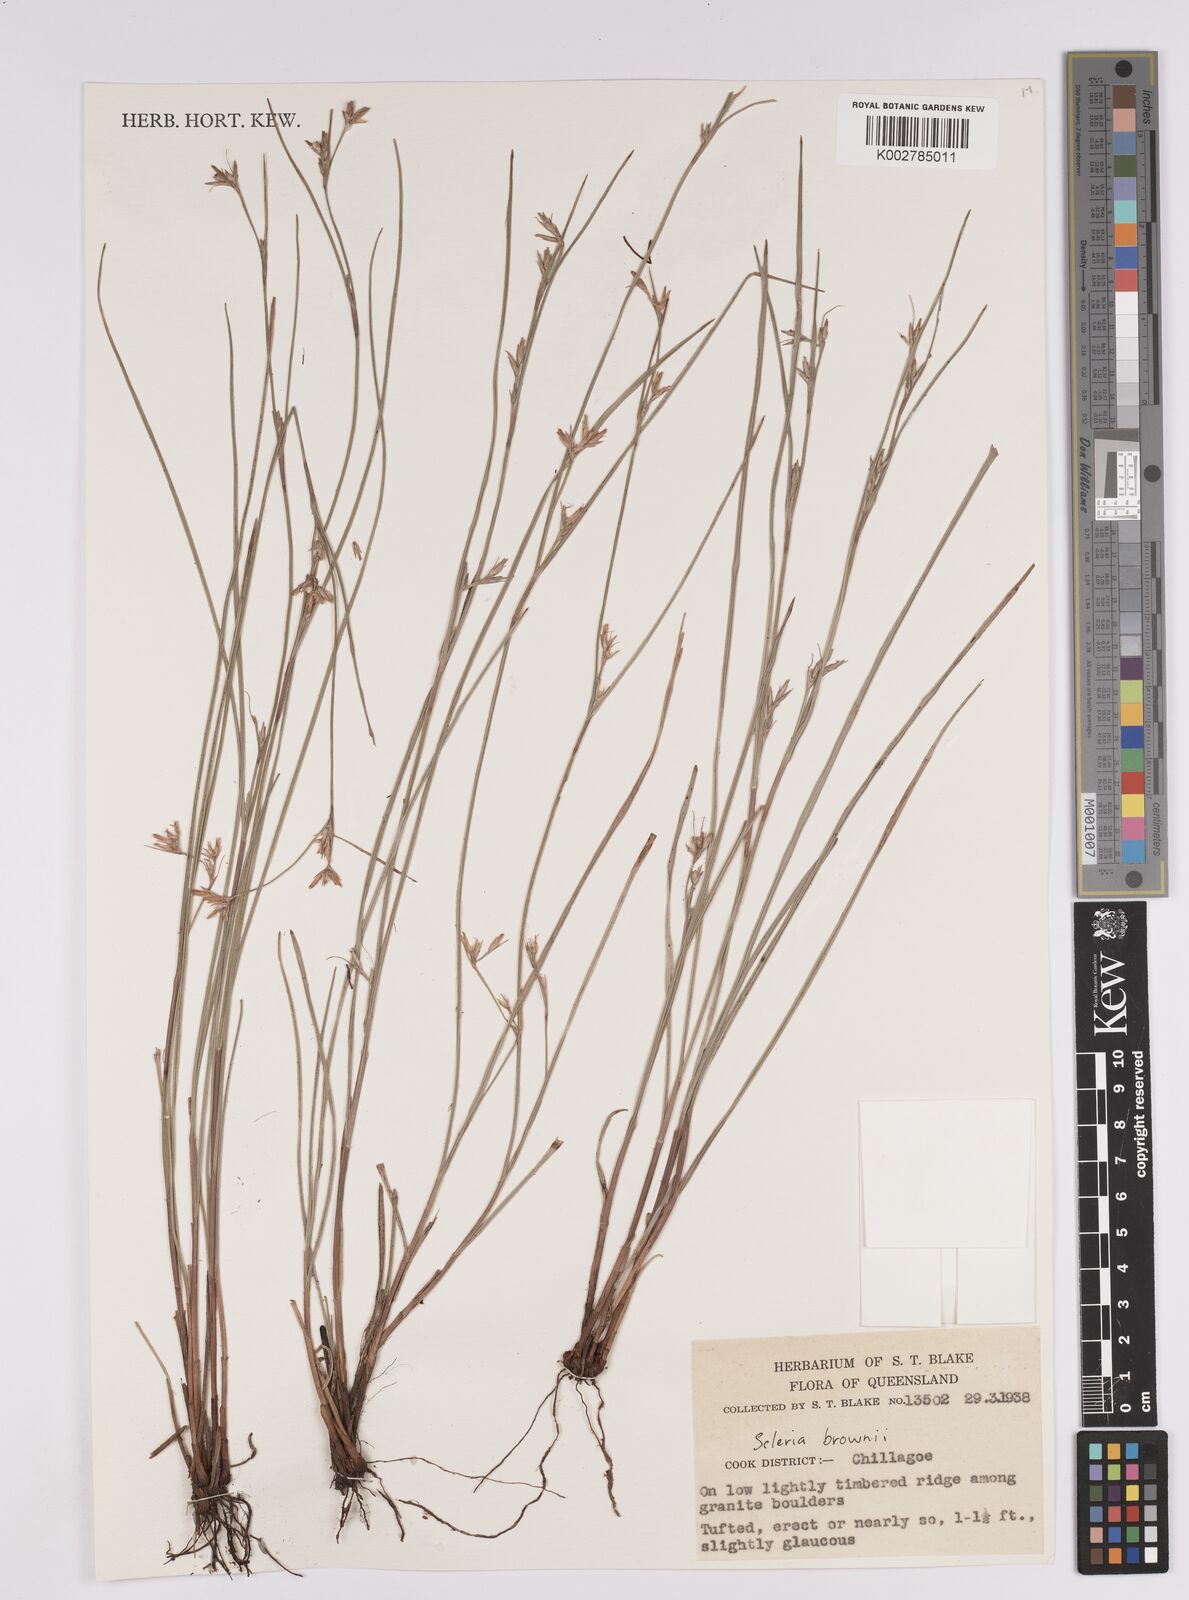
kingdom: Plantae
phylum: Tracheophyta
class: Liliopsida
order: Poales
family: Cyperaceae
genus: Scleria
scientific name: Scleria brownii
